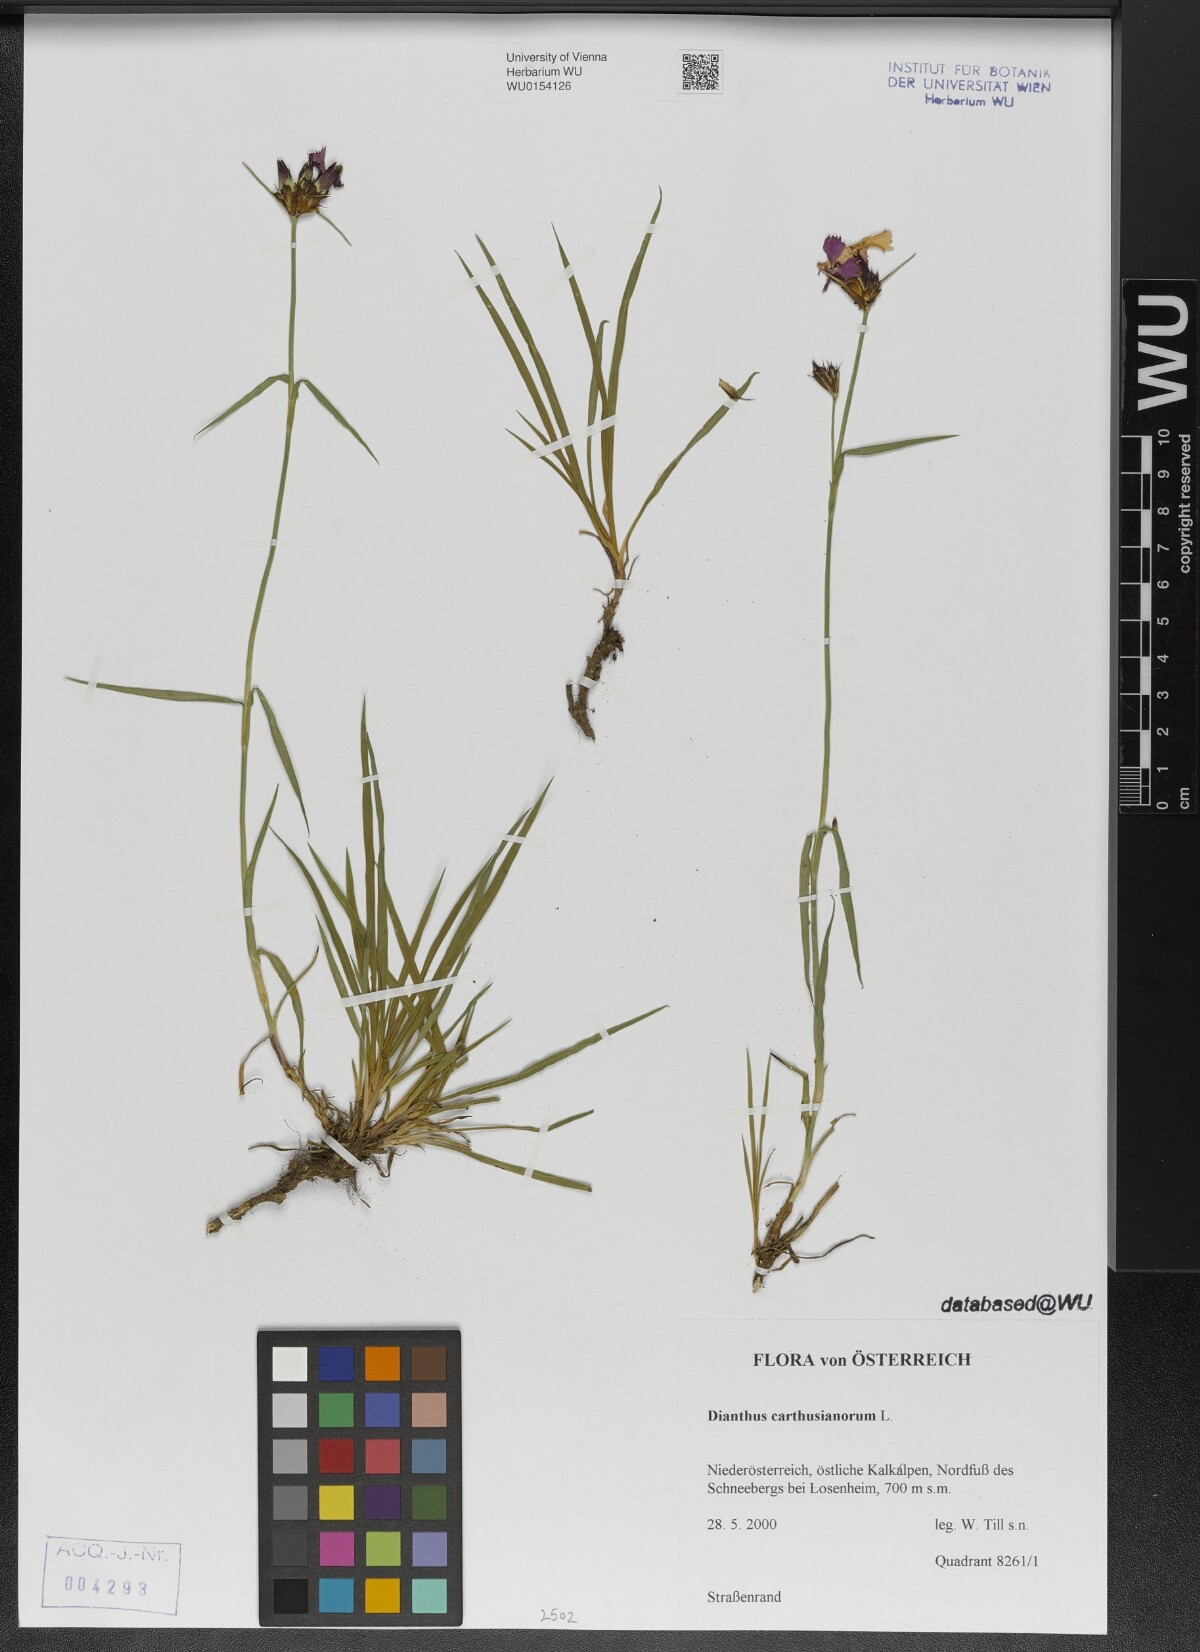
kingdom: Plantae
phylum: Tracheophyta
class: Magnoliopsida
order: Caryophyllales
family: Caryophyllaceae
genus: Dianthus
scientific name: Dianthus carthusianorum
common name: Carthusian pink
